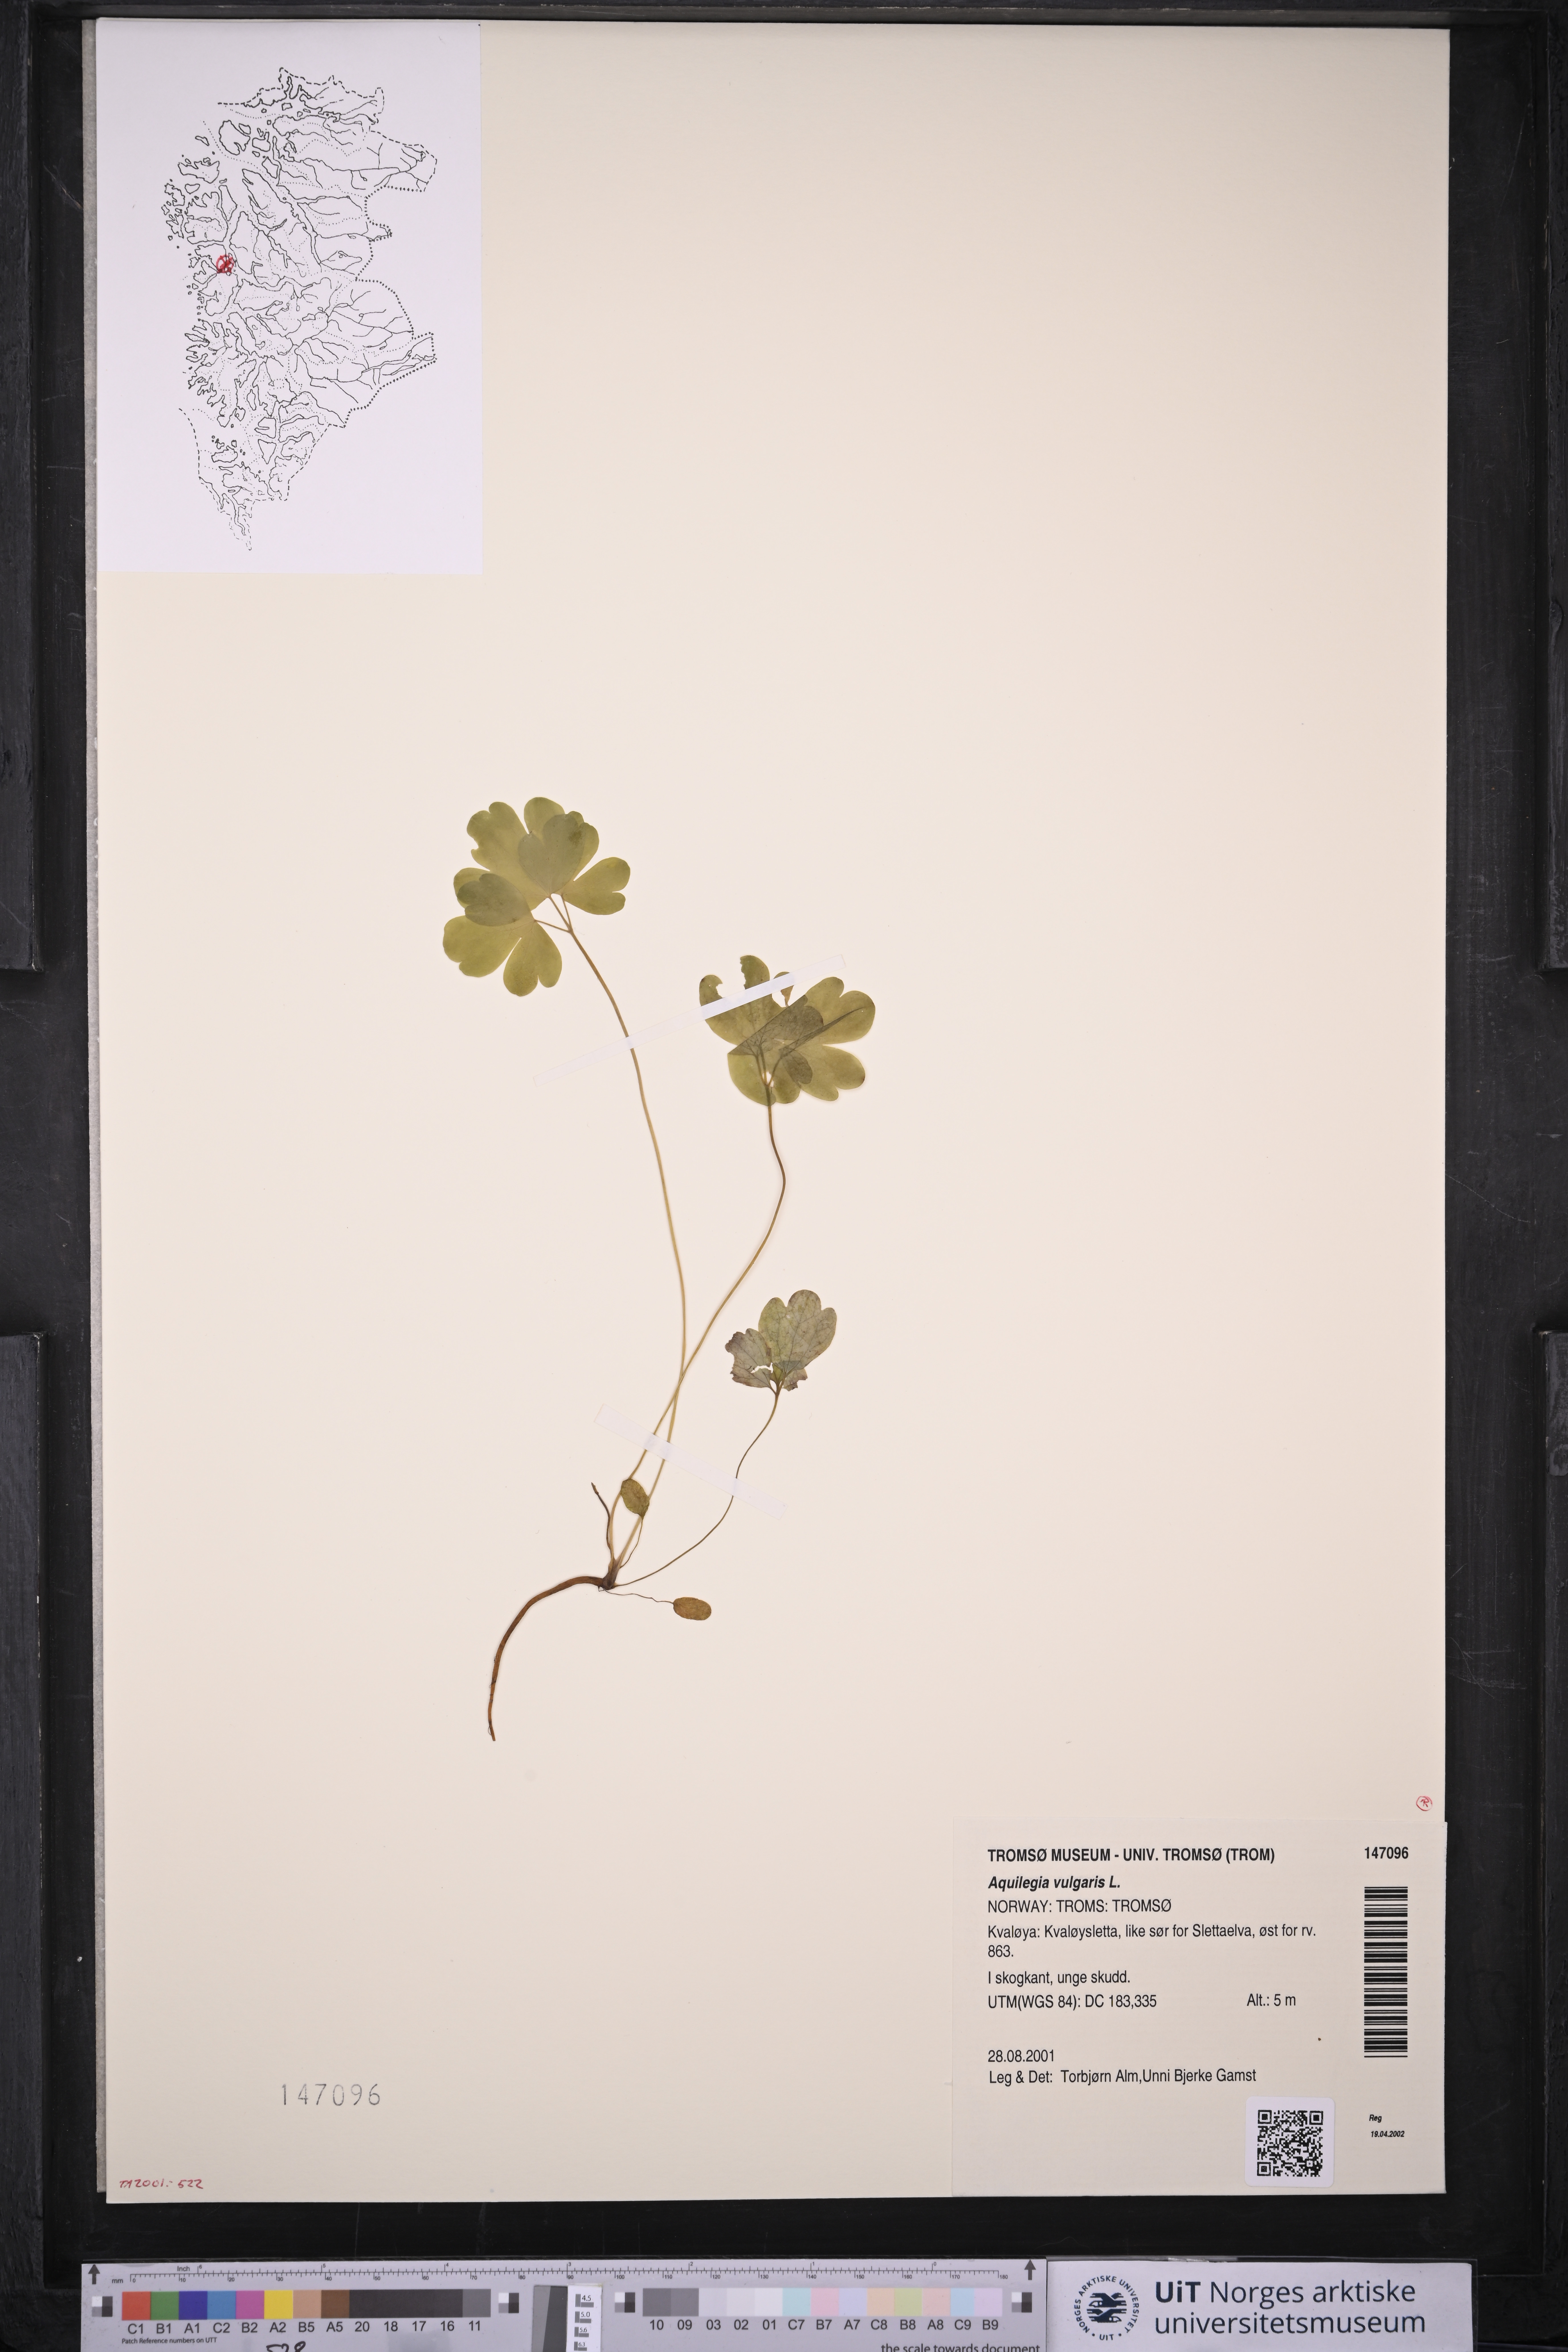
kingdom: Plantae
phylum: Tracheophyta
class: Magnoliopsida
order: Ranunculales
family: Ranunculaceae
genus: Aquilegia
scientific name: Aquilegia vulgaris
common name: Columbine
